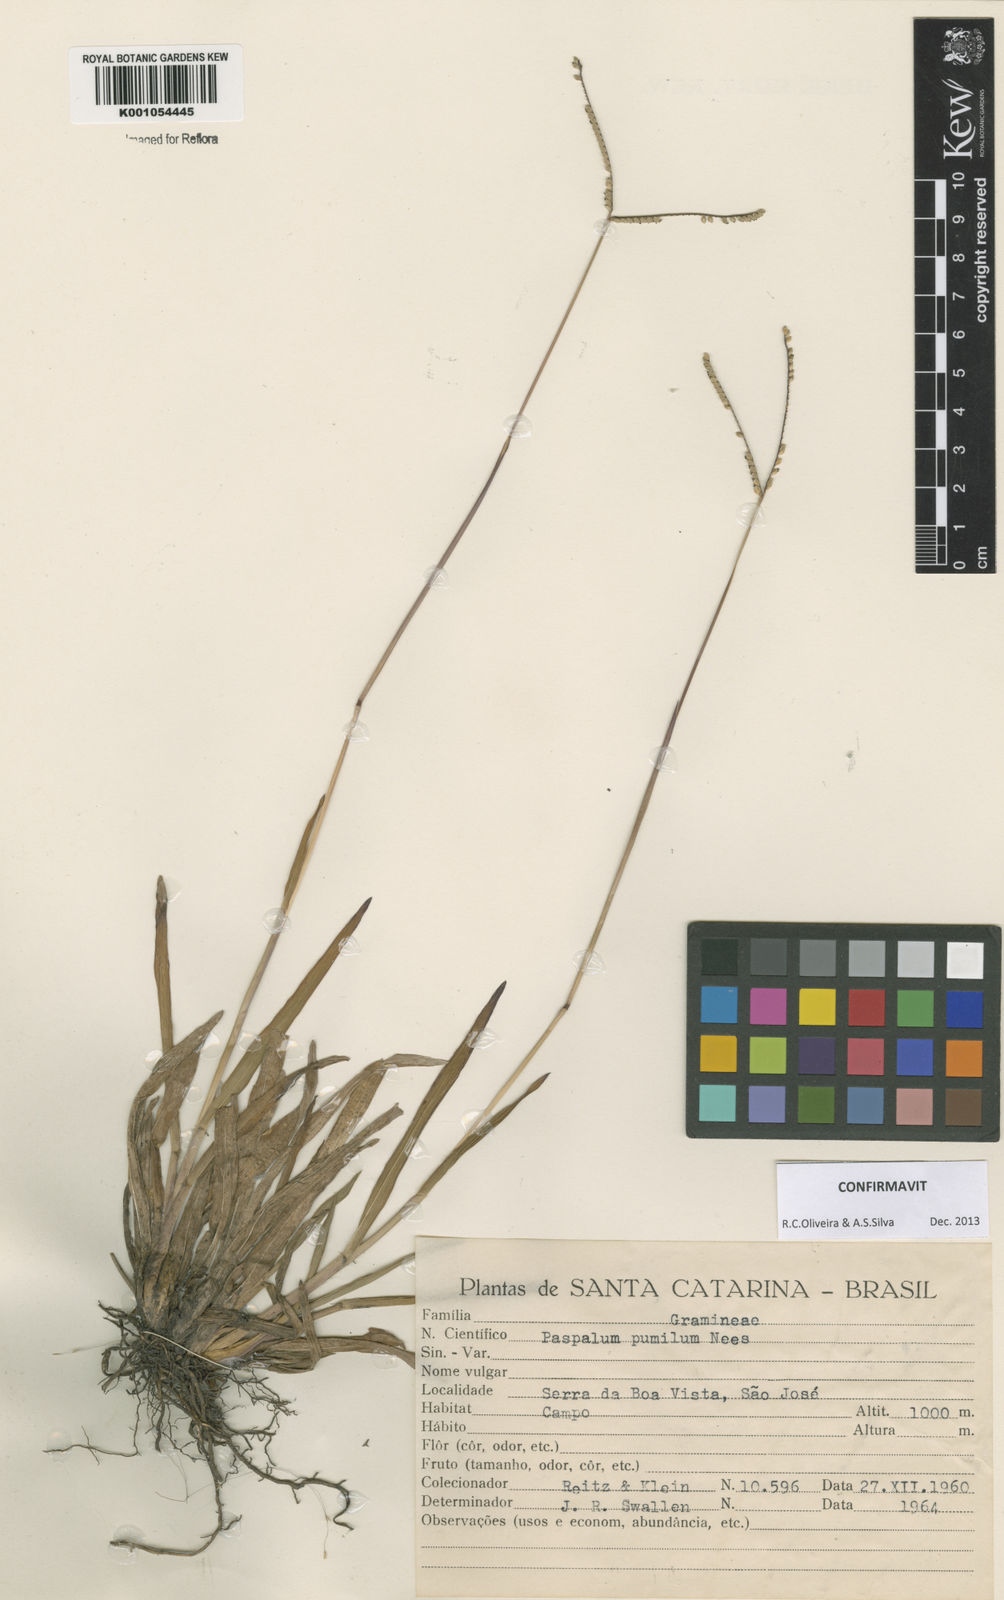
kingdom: Plantae
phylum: Tracheophyta
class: Liliopsida
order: Poales
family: Poaceae
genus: Paspalum
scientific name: Paspalum pumilum
